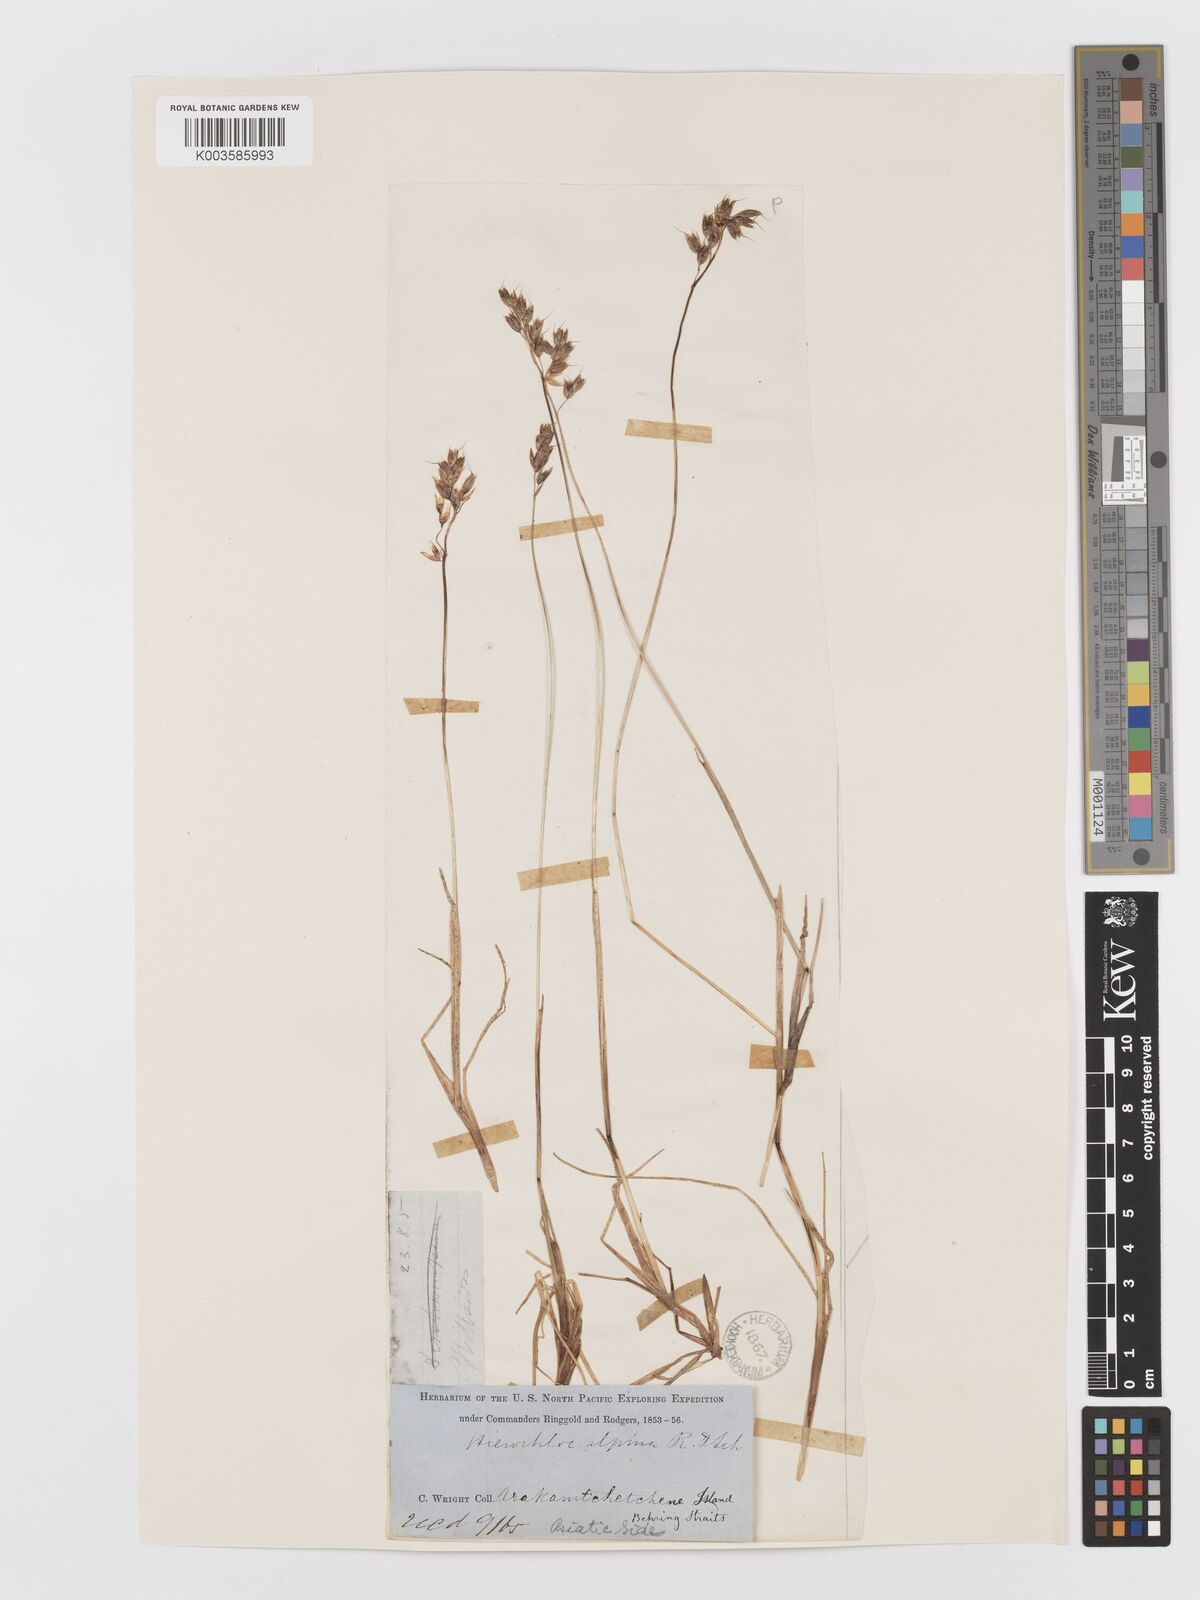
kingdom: Plantae
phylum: Tracheophyta
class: Liliopsida
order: Poales
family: Poaceae
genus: Anthoxanthum
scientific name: Anthoxanthum monticola
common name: Alpine sweetgrass
